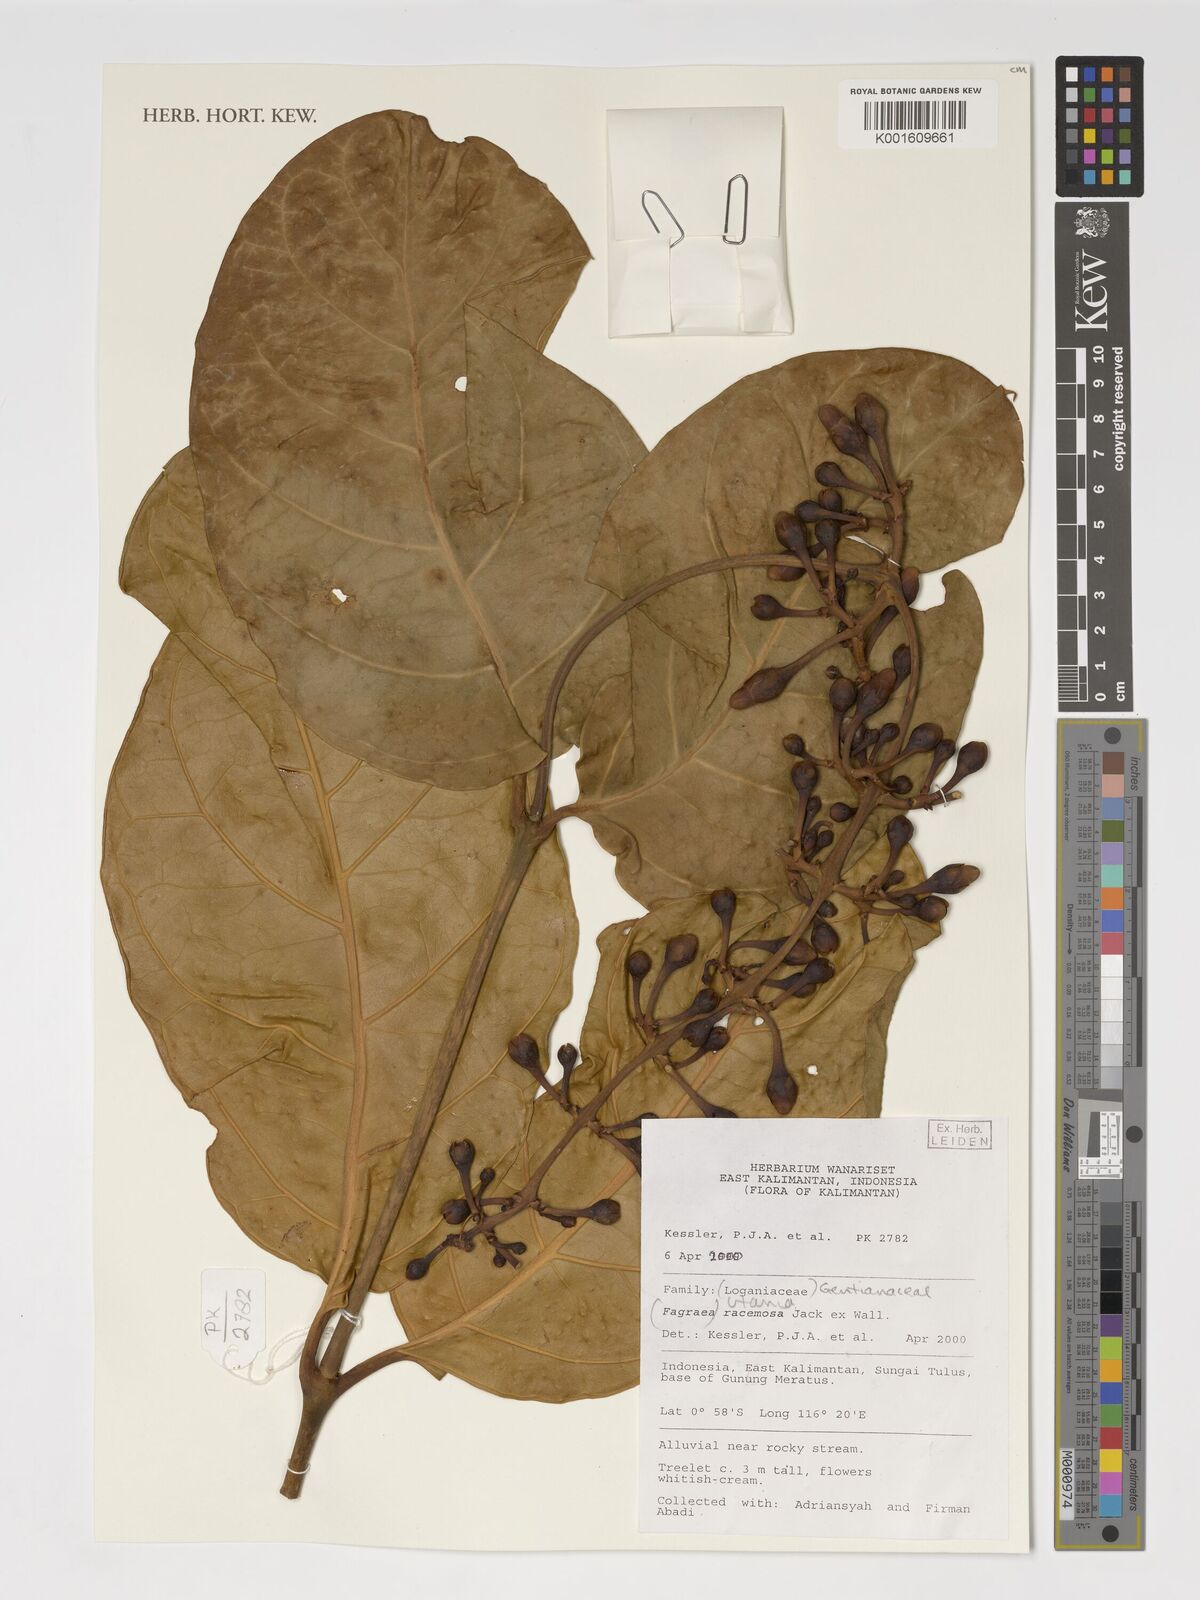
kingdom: Plantae
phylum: Tracheophyta
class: Magnoliopsida
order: Gentianales
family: Gentianaceae
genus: Utania
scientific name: Utania racemosa
